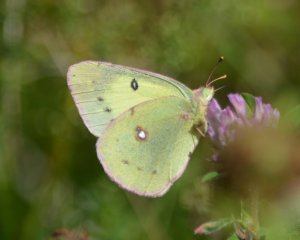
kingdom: Animalia
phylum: Arthropoda
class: Insecta
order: Lepidoptera
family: Pieridae
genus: Colias
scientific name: Colias philodice
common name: Clouded Sulphur
